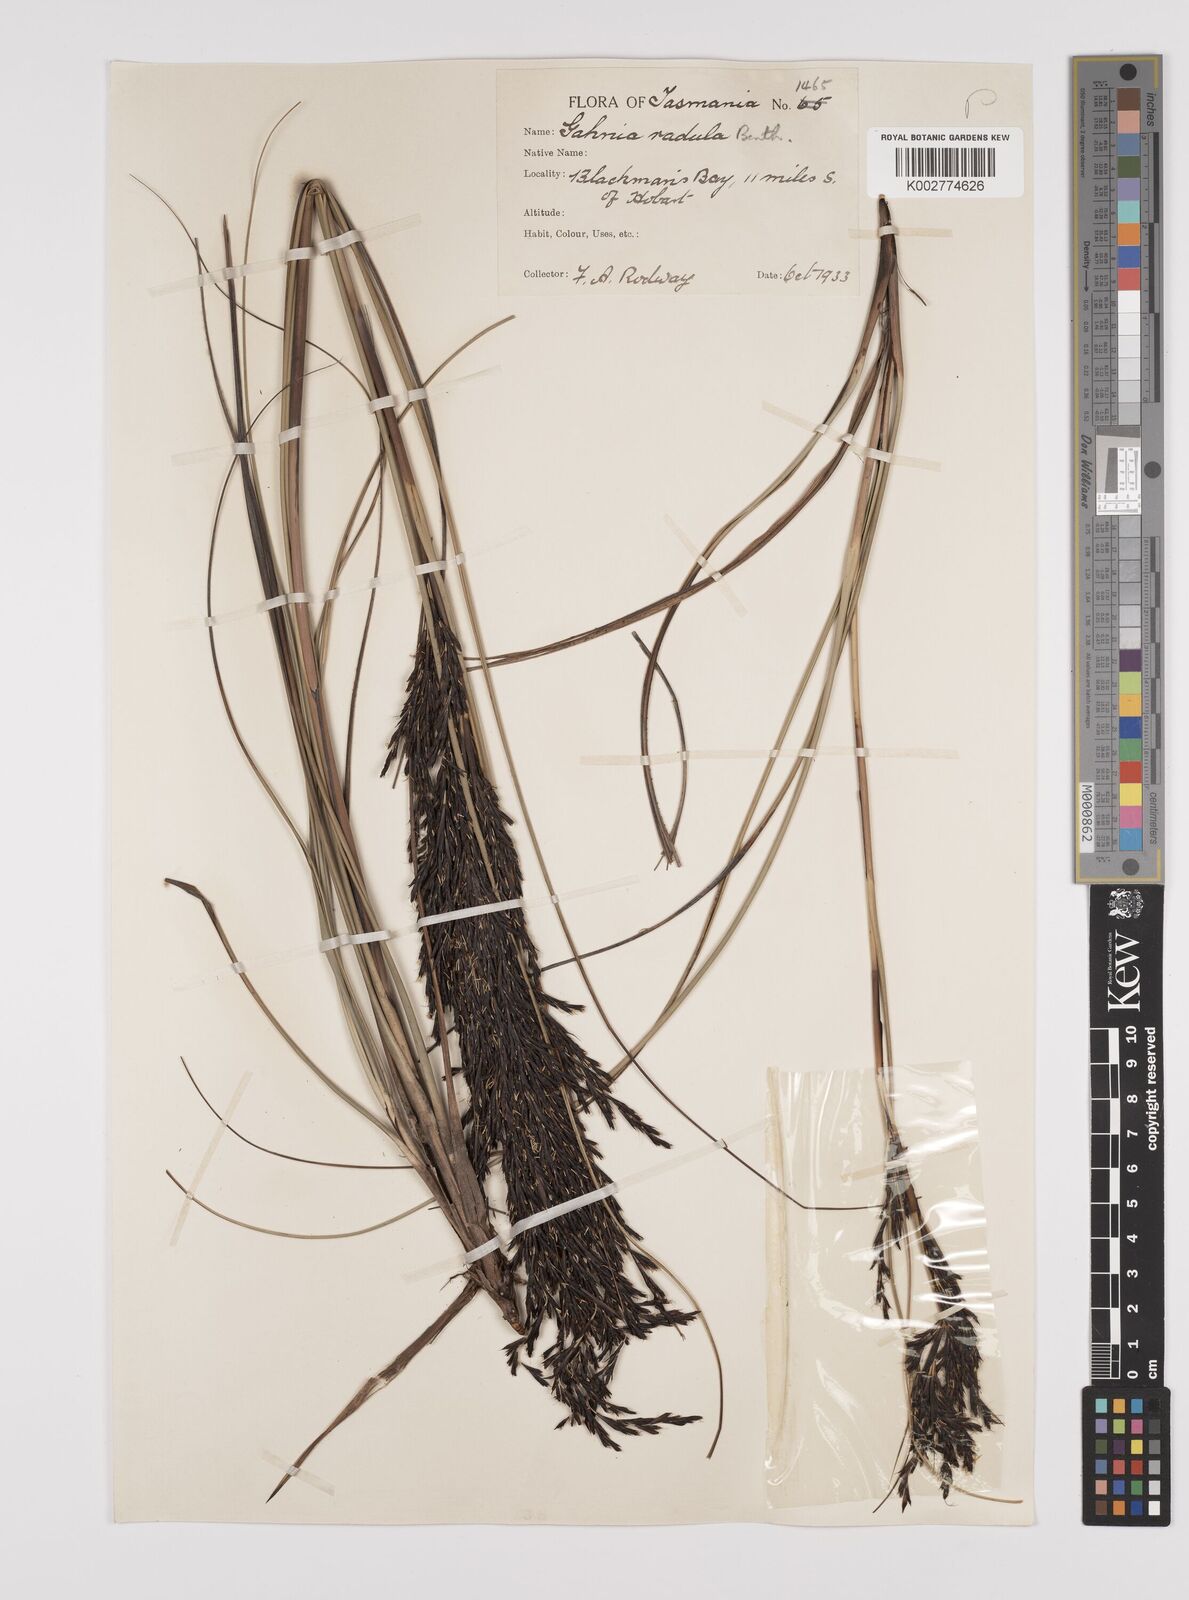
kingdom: Plantae
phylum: Tracheophyta
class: Liliopsida
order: Poales
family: Cyperaceae
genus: Gahnia
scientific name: Gahnia radula
